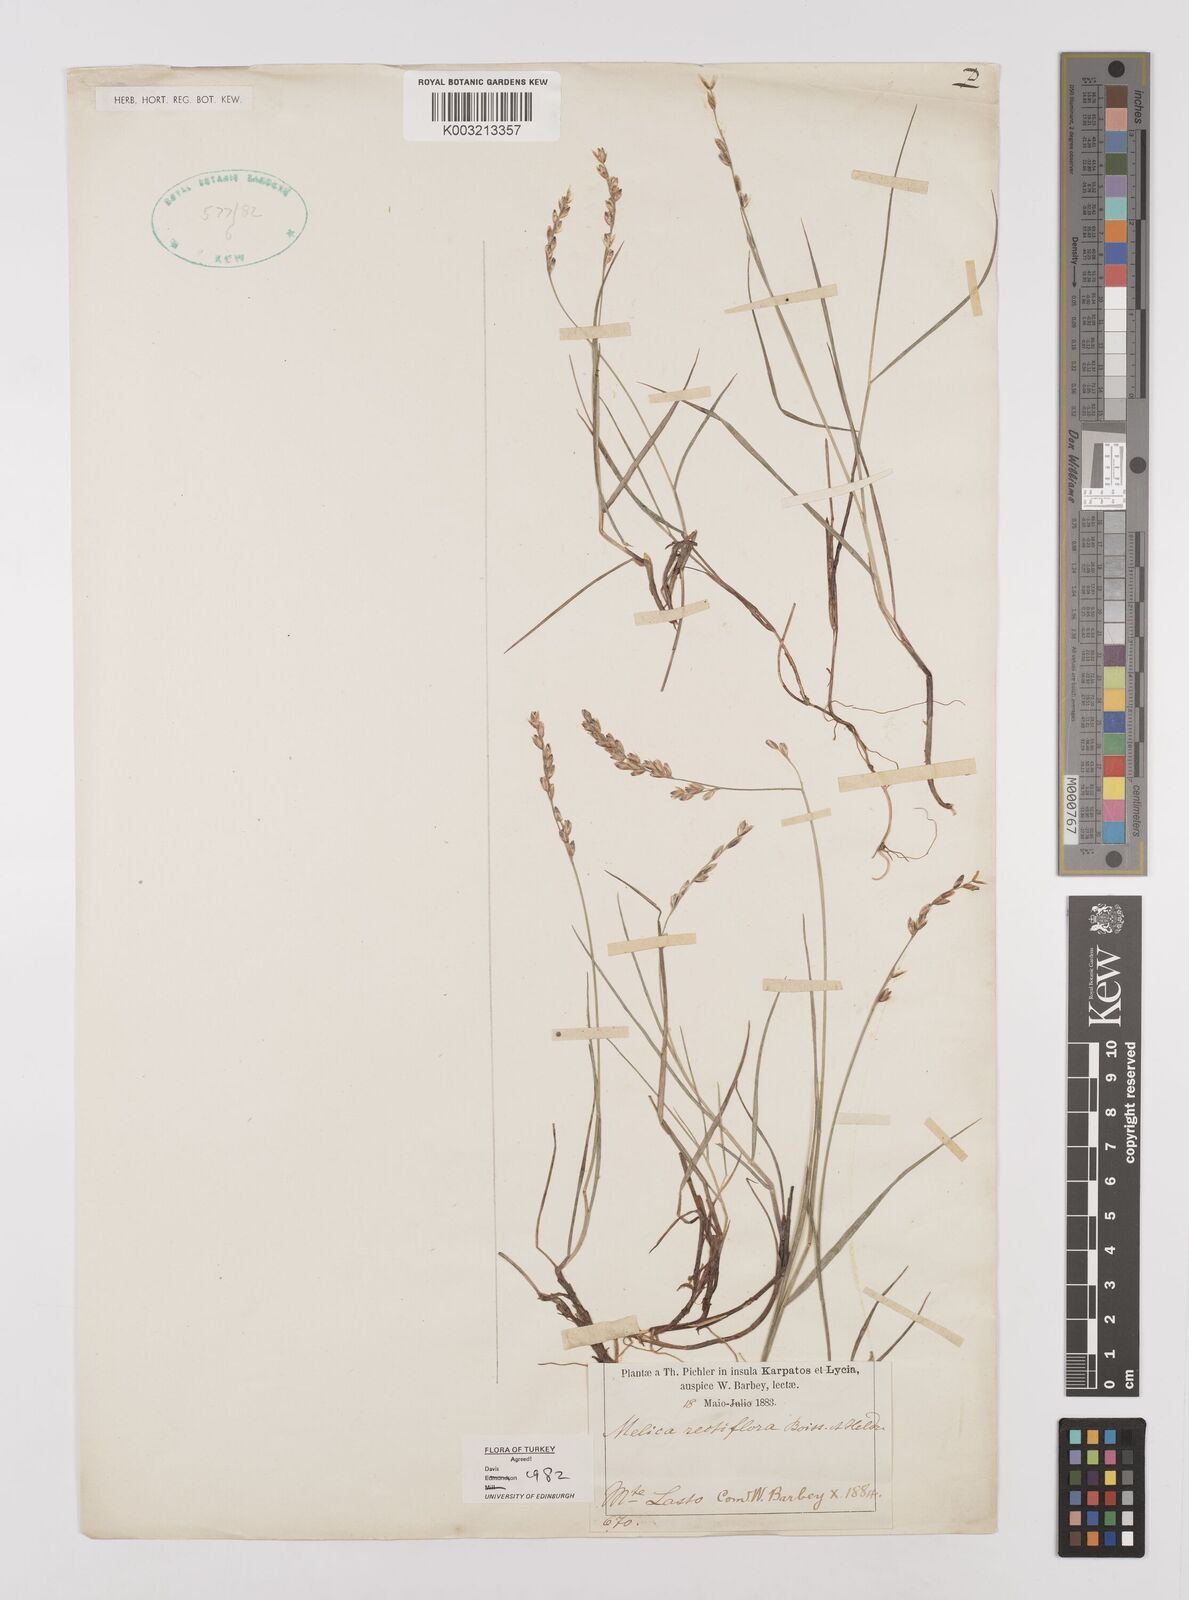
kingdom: Plantae
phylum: Tracheophyta
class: Liliopsida
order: Poales
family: Poaceae
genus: Melica
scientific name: Melica rectiflora
